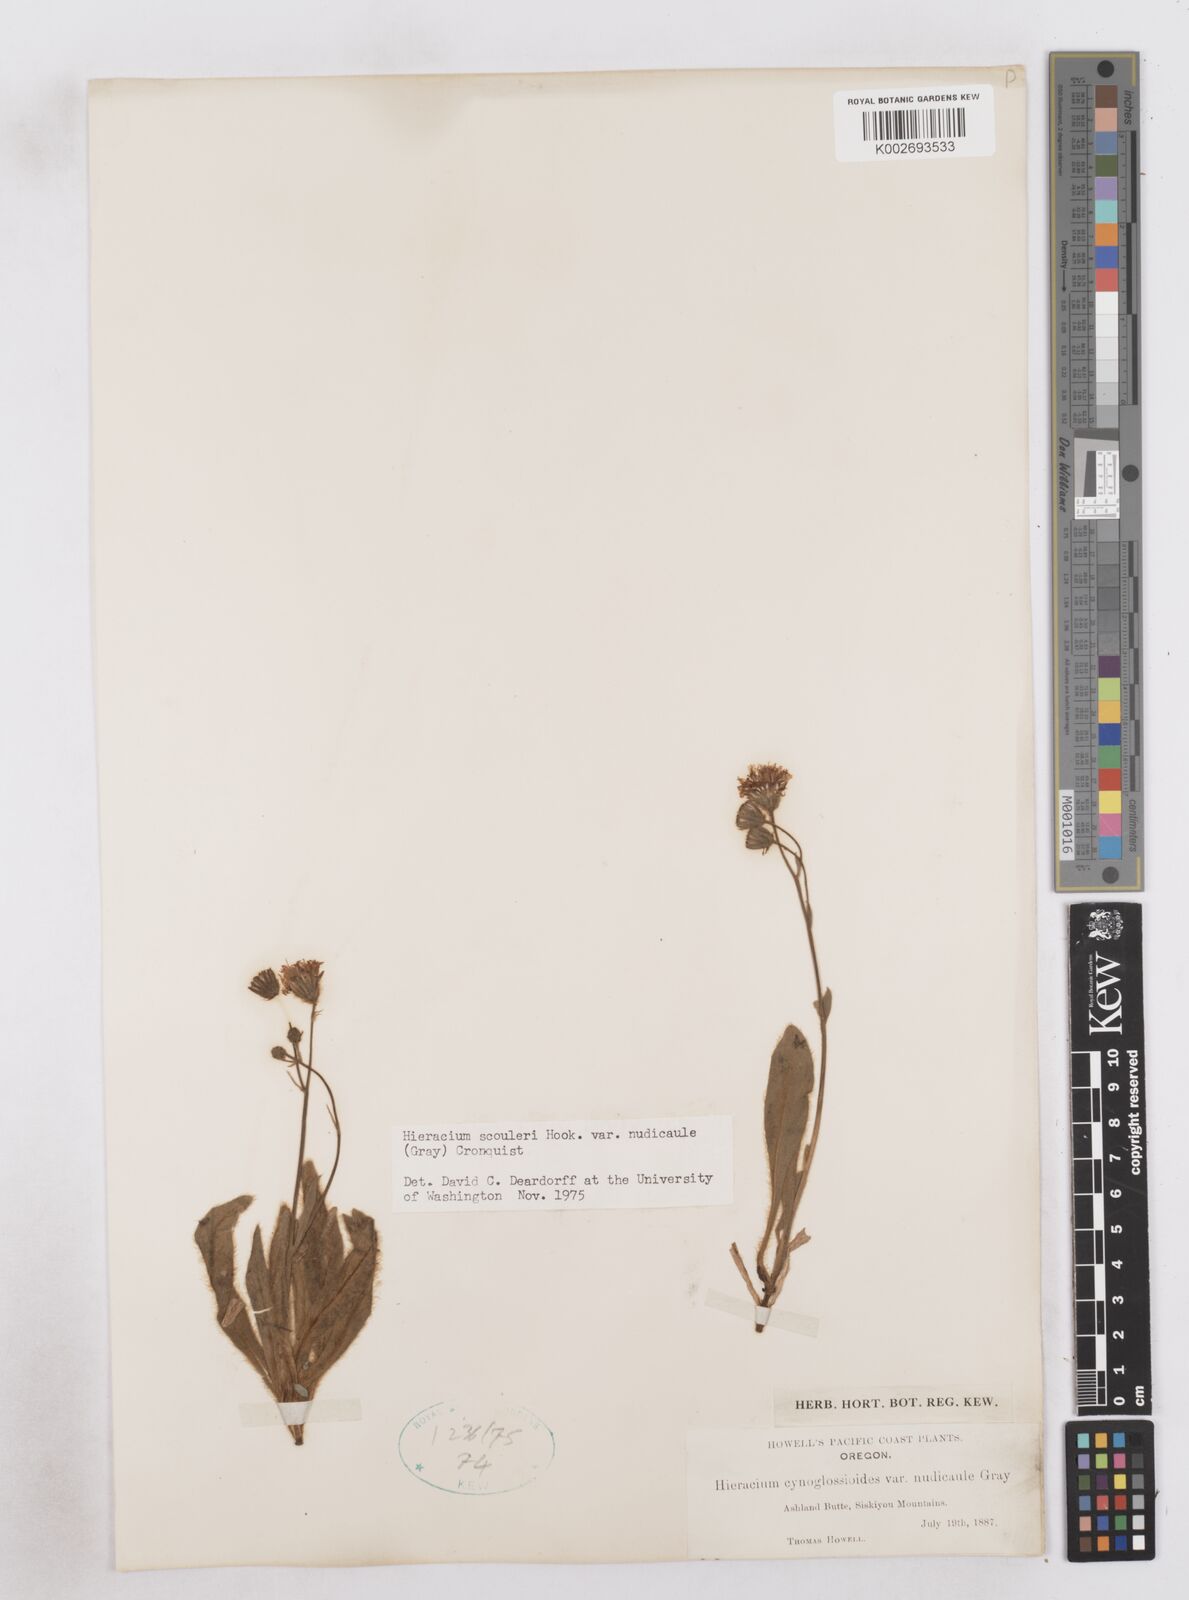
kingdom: Plantae
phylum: Tracheophyta
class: Magnoliopsida
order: Asterales
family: Asteraceae
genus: Hieracium
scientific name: Hieracium nudicaule
